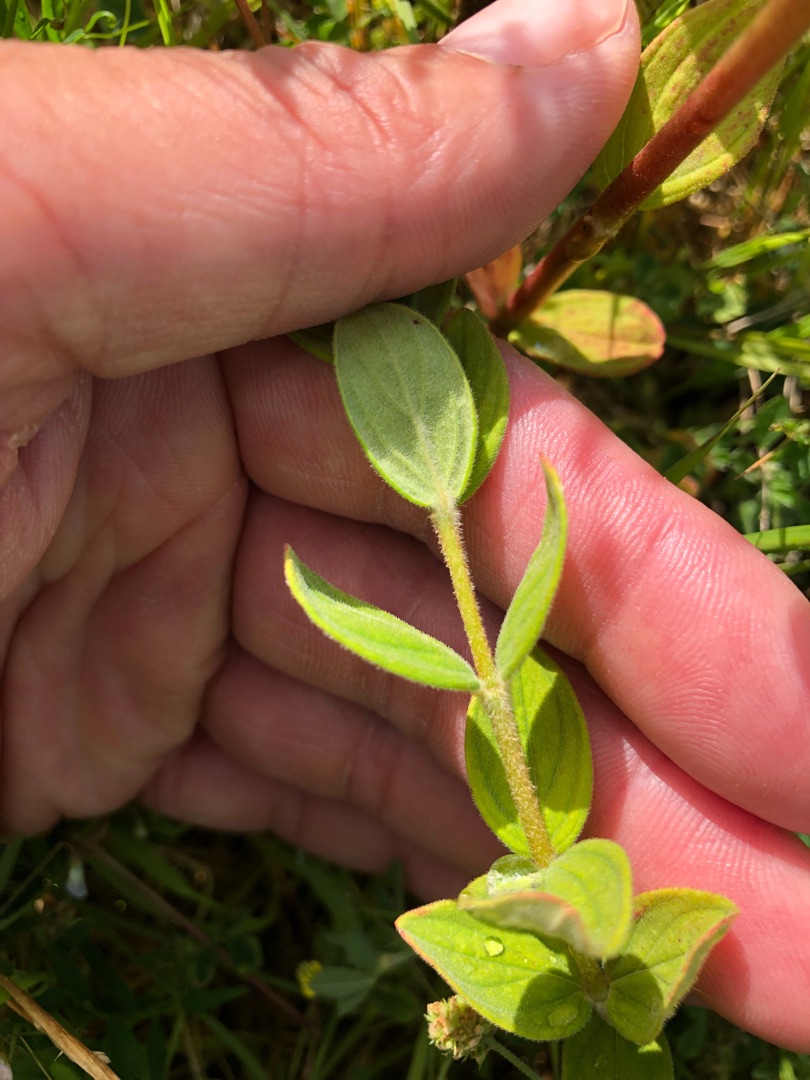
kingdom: Plantae
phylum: Tracheophyta
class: Magnoliopsida
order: Malpighiales
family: Hypericaceae
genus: Hypericum
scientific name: Hypericum hirsutum
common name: Lådden perikon
